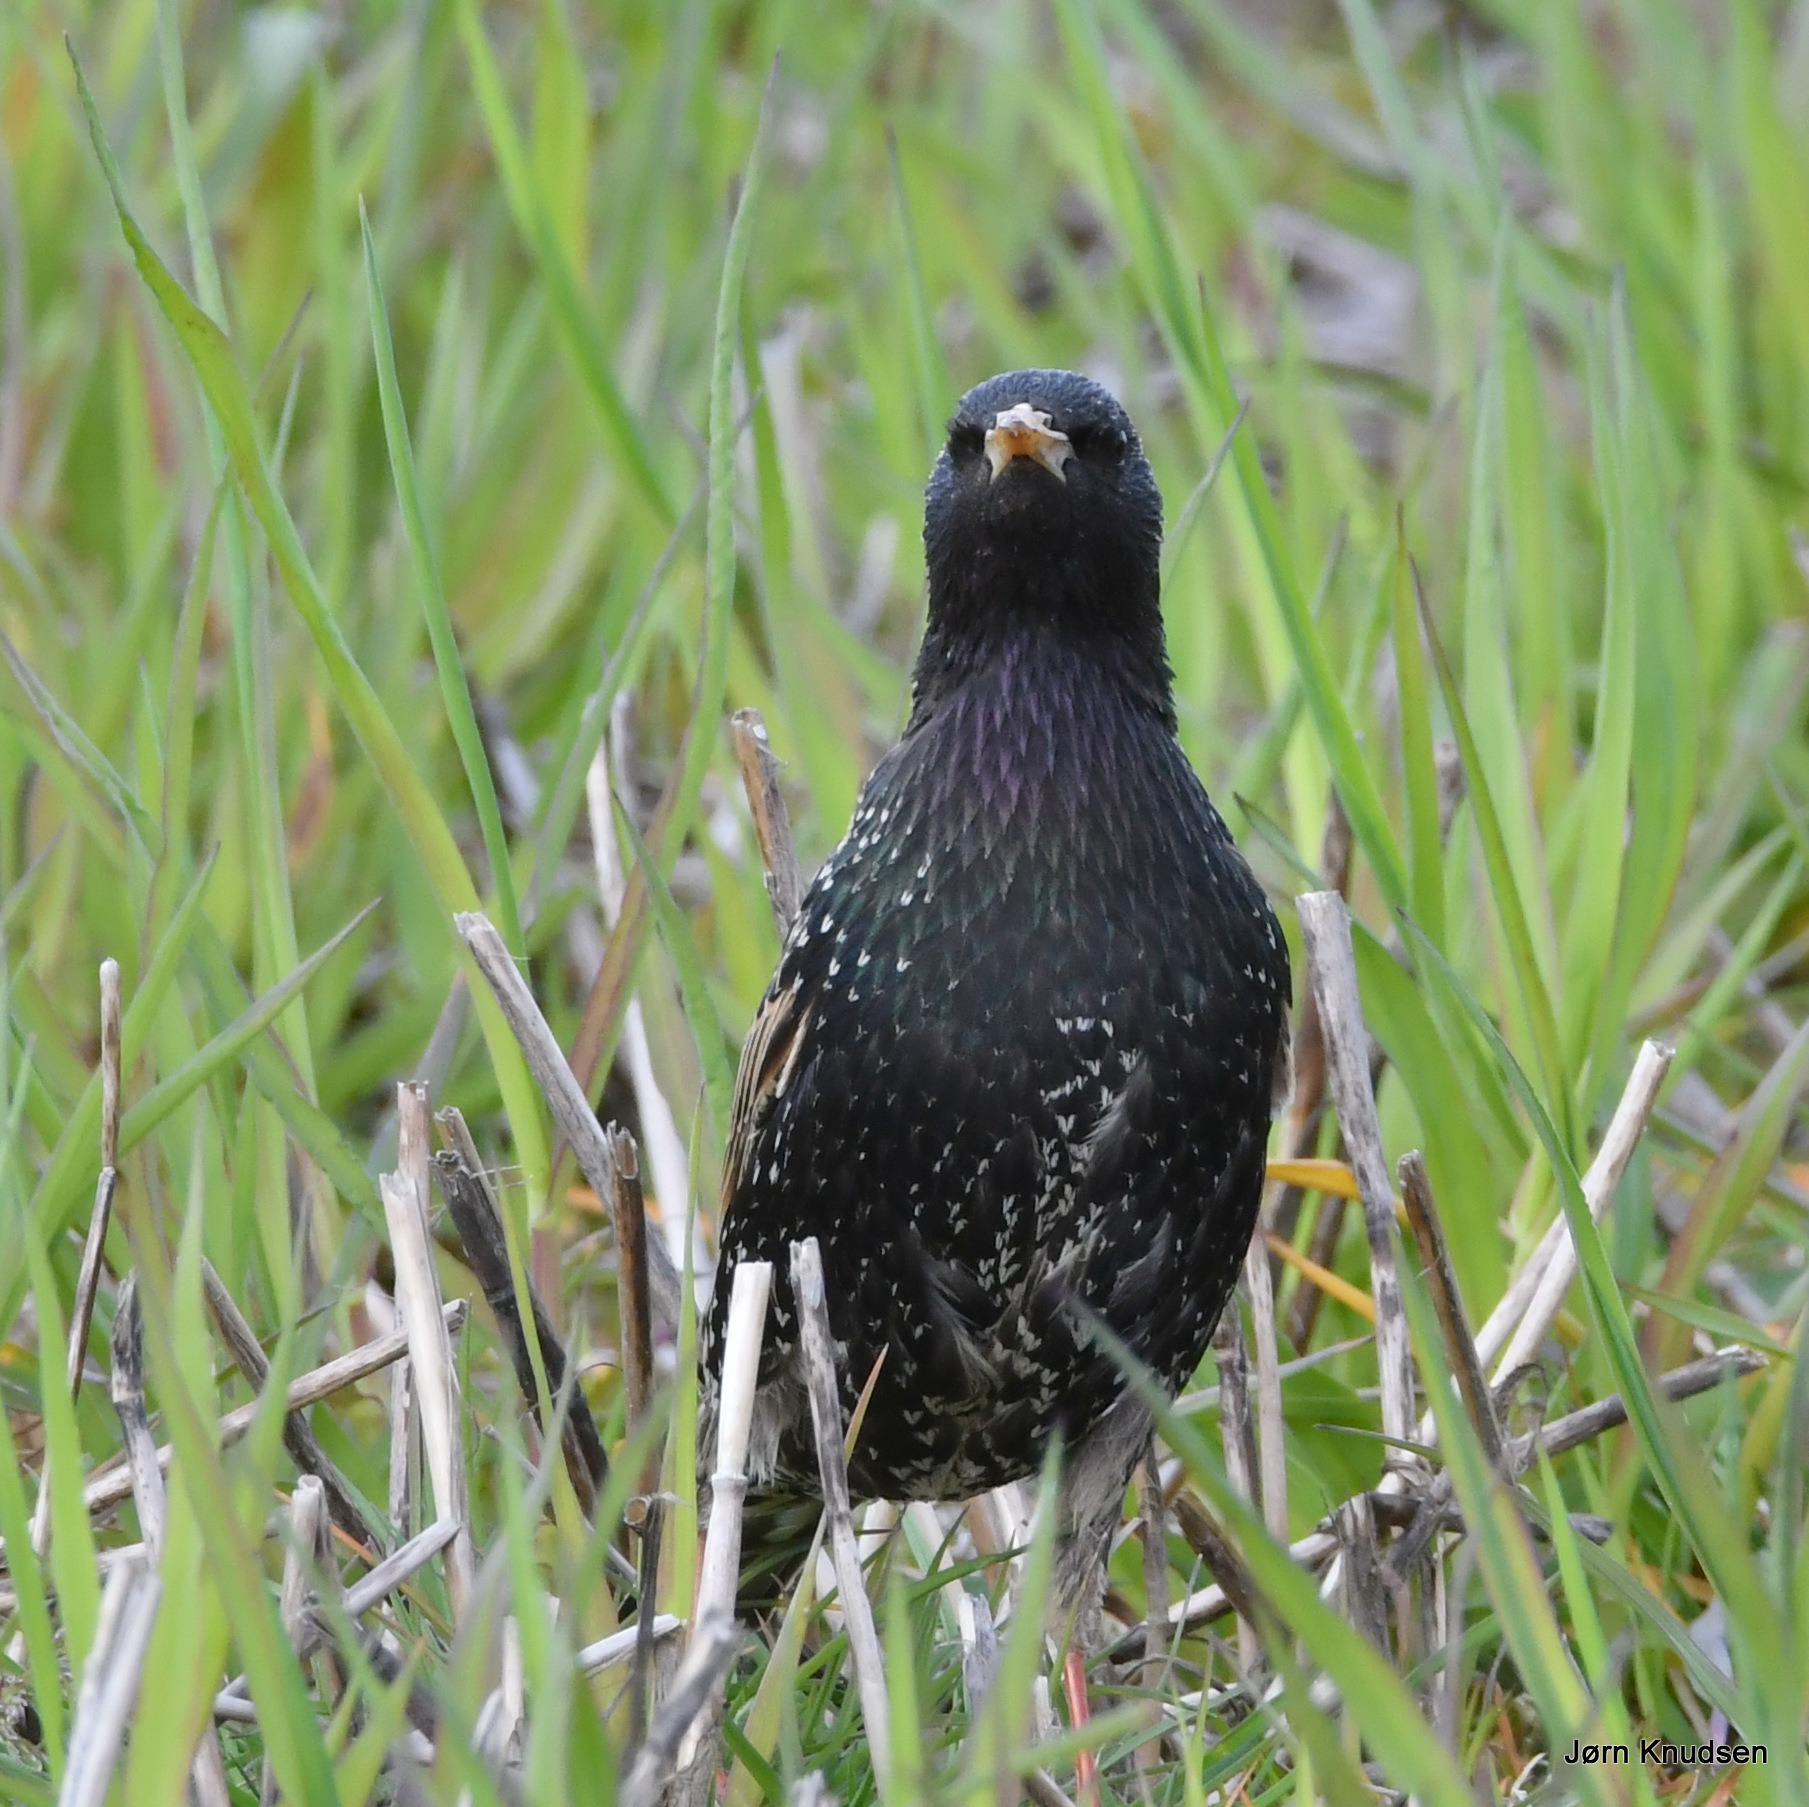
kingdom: Animalia
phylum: Chordata
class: Aves
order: Passeriformes
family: Sturnidae
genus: Sturnus
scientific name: Sturnus vulgaris
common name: Stær
